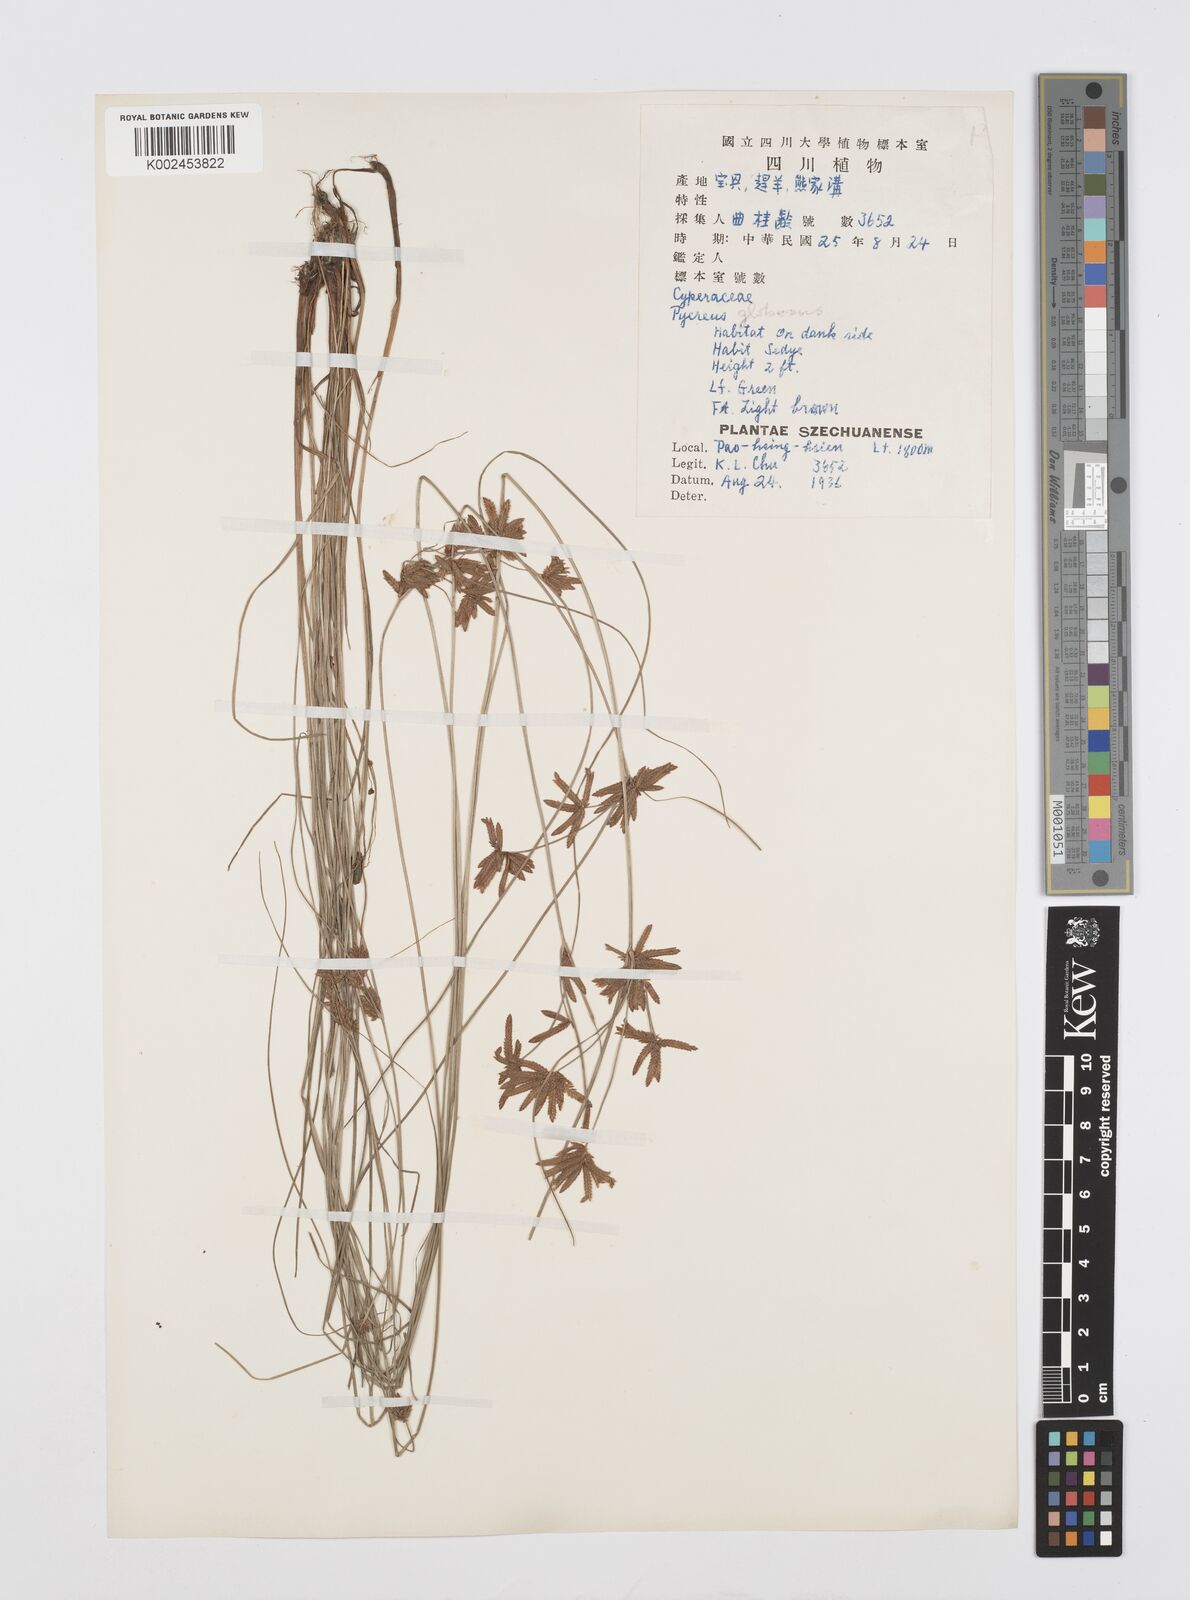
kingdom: Plantae
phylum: Tracheophyta
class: Liliopsida
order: Poales
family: Cyperaceae
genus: Cyperus
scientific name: Cyperus flavidus
